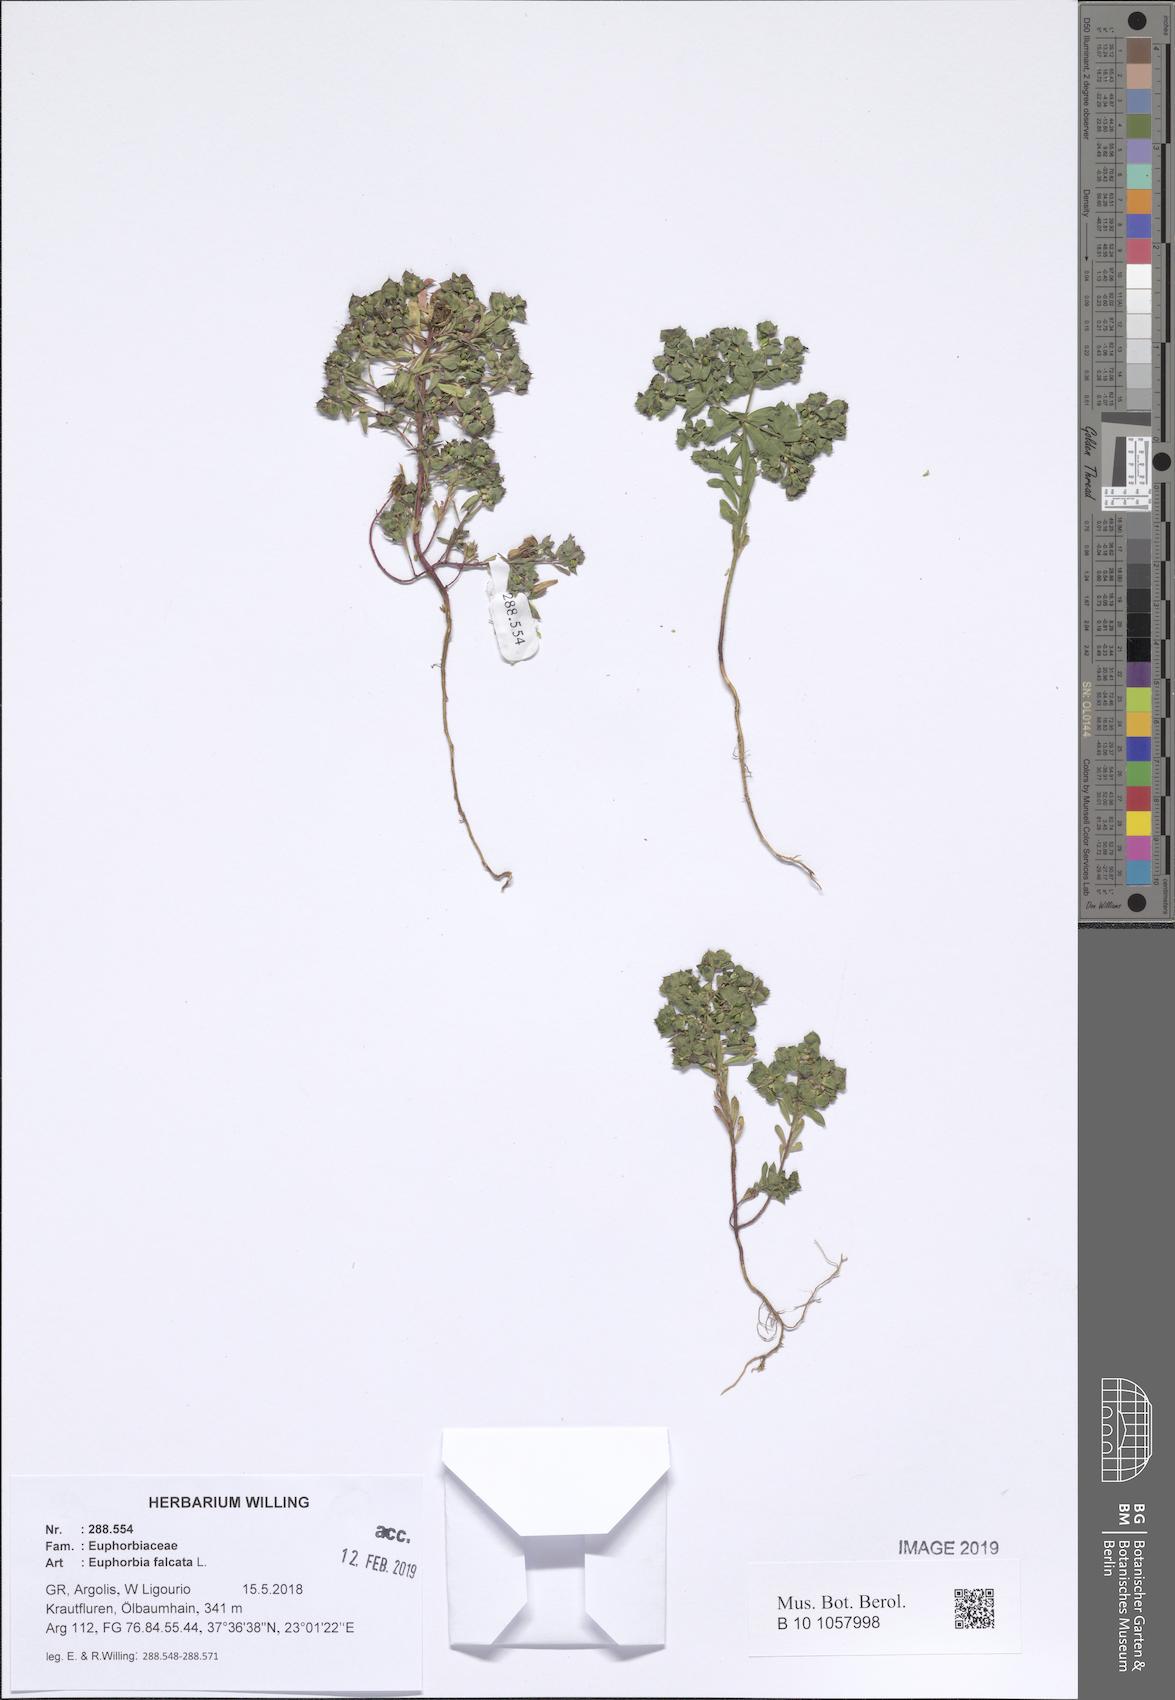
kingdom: Plantae
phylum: Tracheophyta
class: Magnoliopsida
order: Malpighiales
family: Euphorbiaceae
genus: Euphorbia
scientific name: Euphorbia falcata
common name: Sickle spurge
